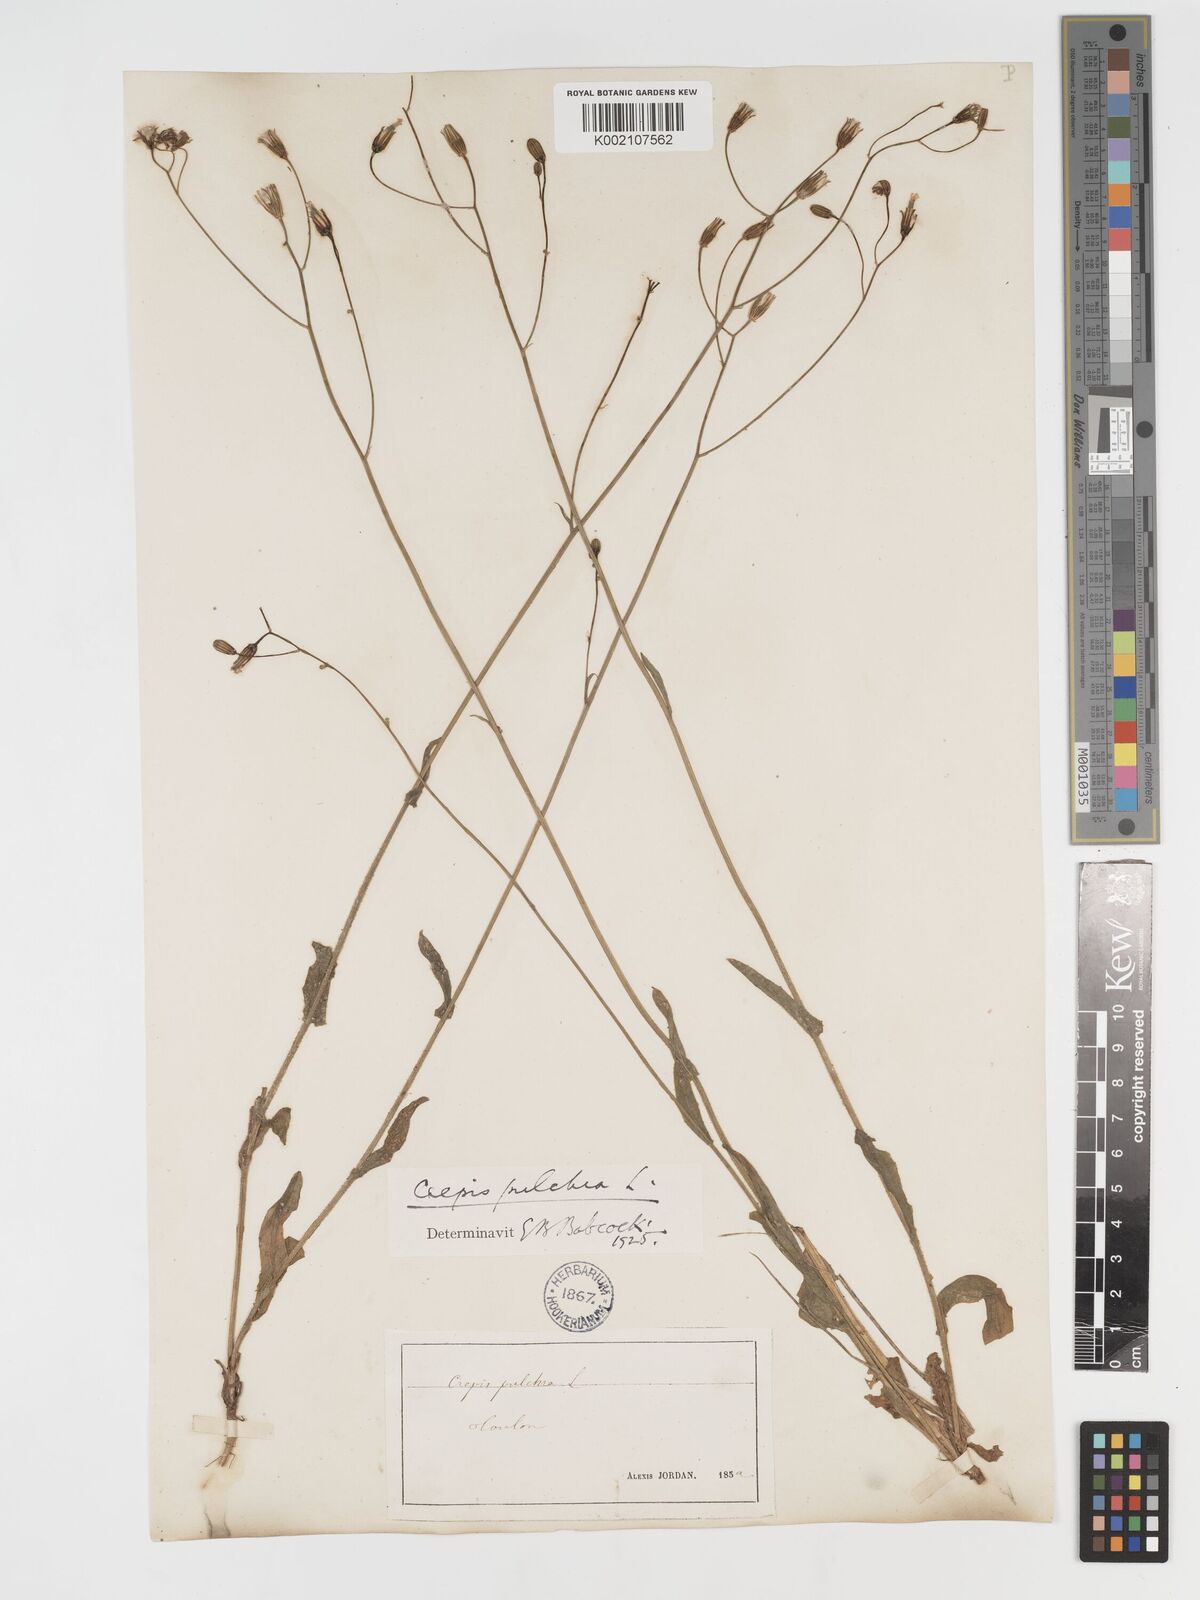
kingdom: Plantae
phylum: Tracheophyta
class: Magnoliopsida
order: Asterales
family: Asteraceae
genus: Crepis
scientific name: Crepis pulchra
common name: Hawk's-beard
